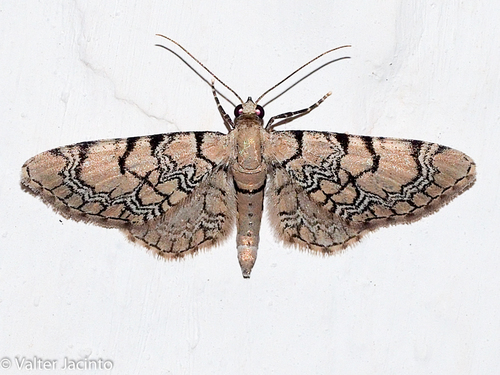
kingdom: Animalia
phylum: Arthropoda
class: Insecta
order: Lepidoptera
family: Geometridae
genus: Eupithecia
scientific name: Eupithecia venosata
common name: Netted pug
